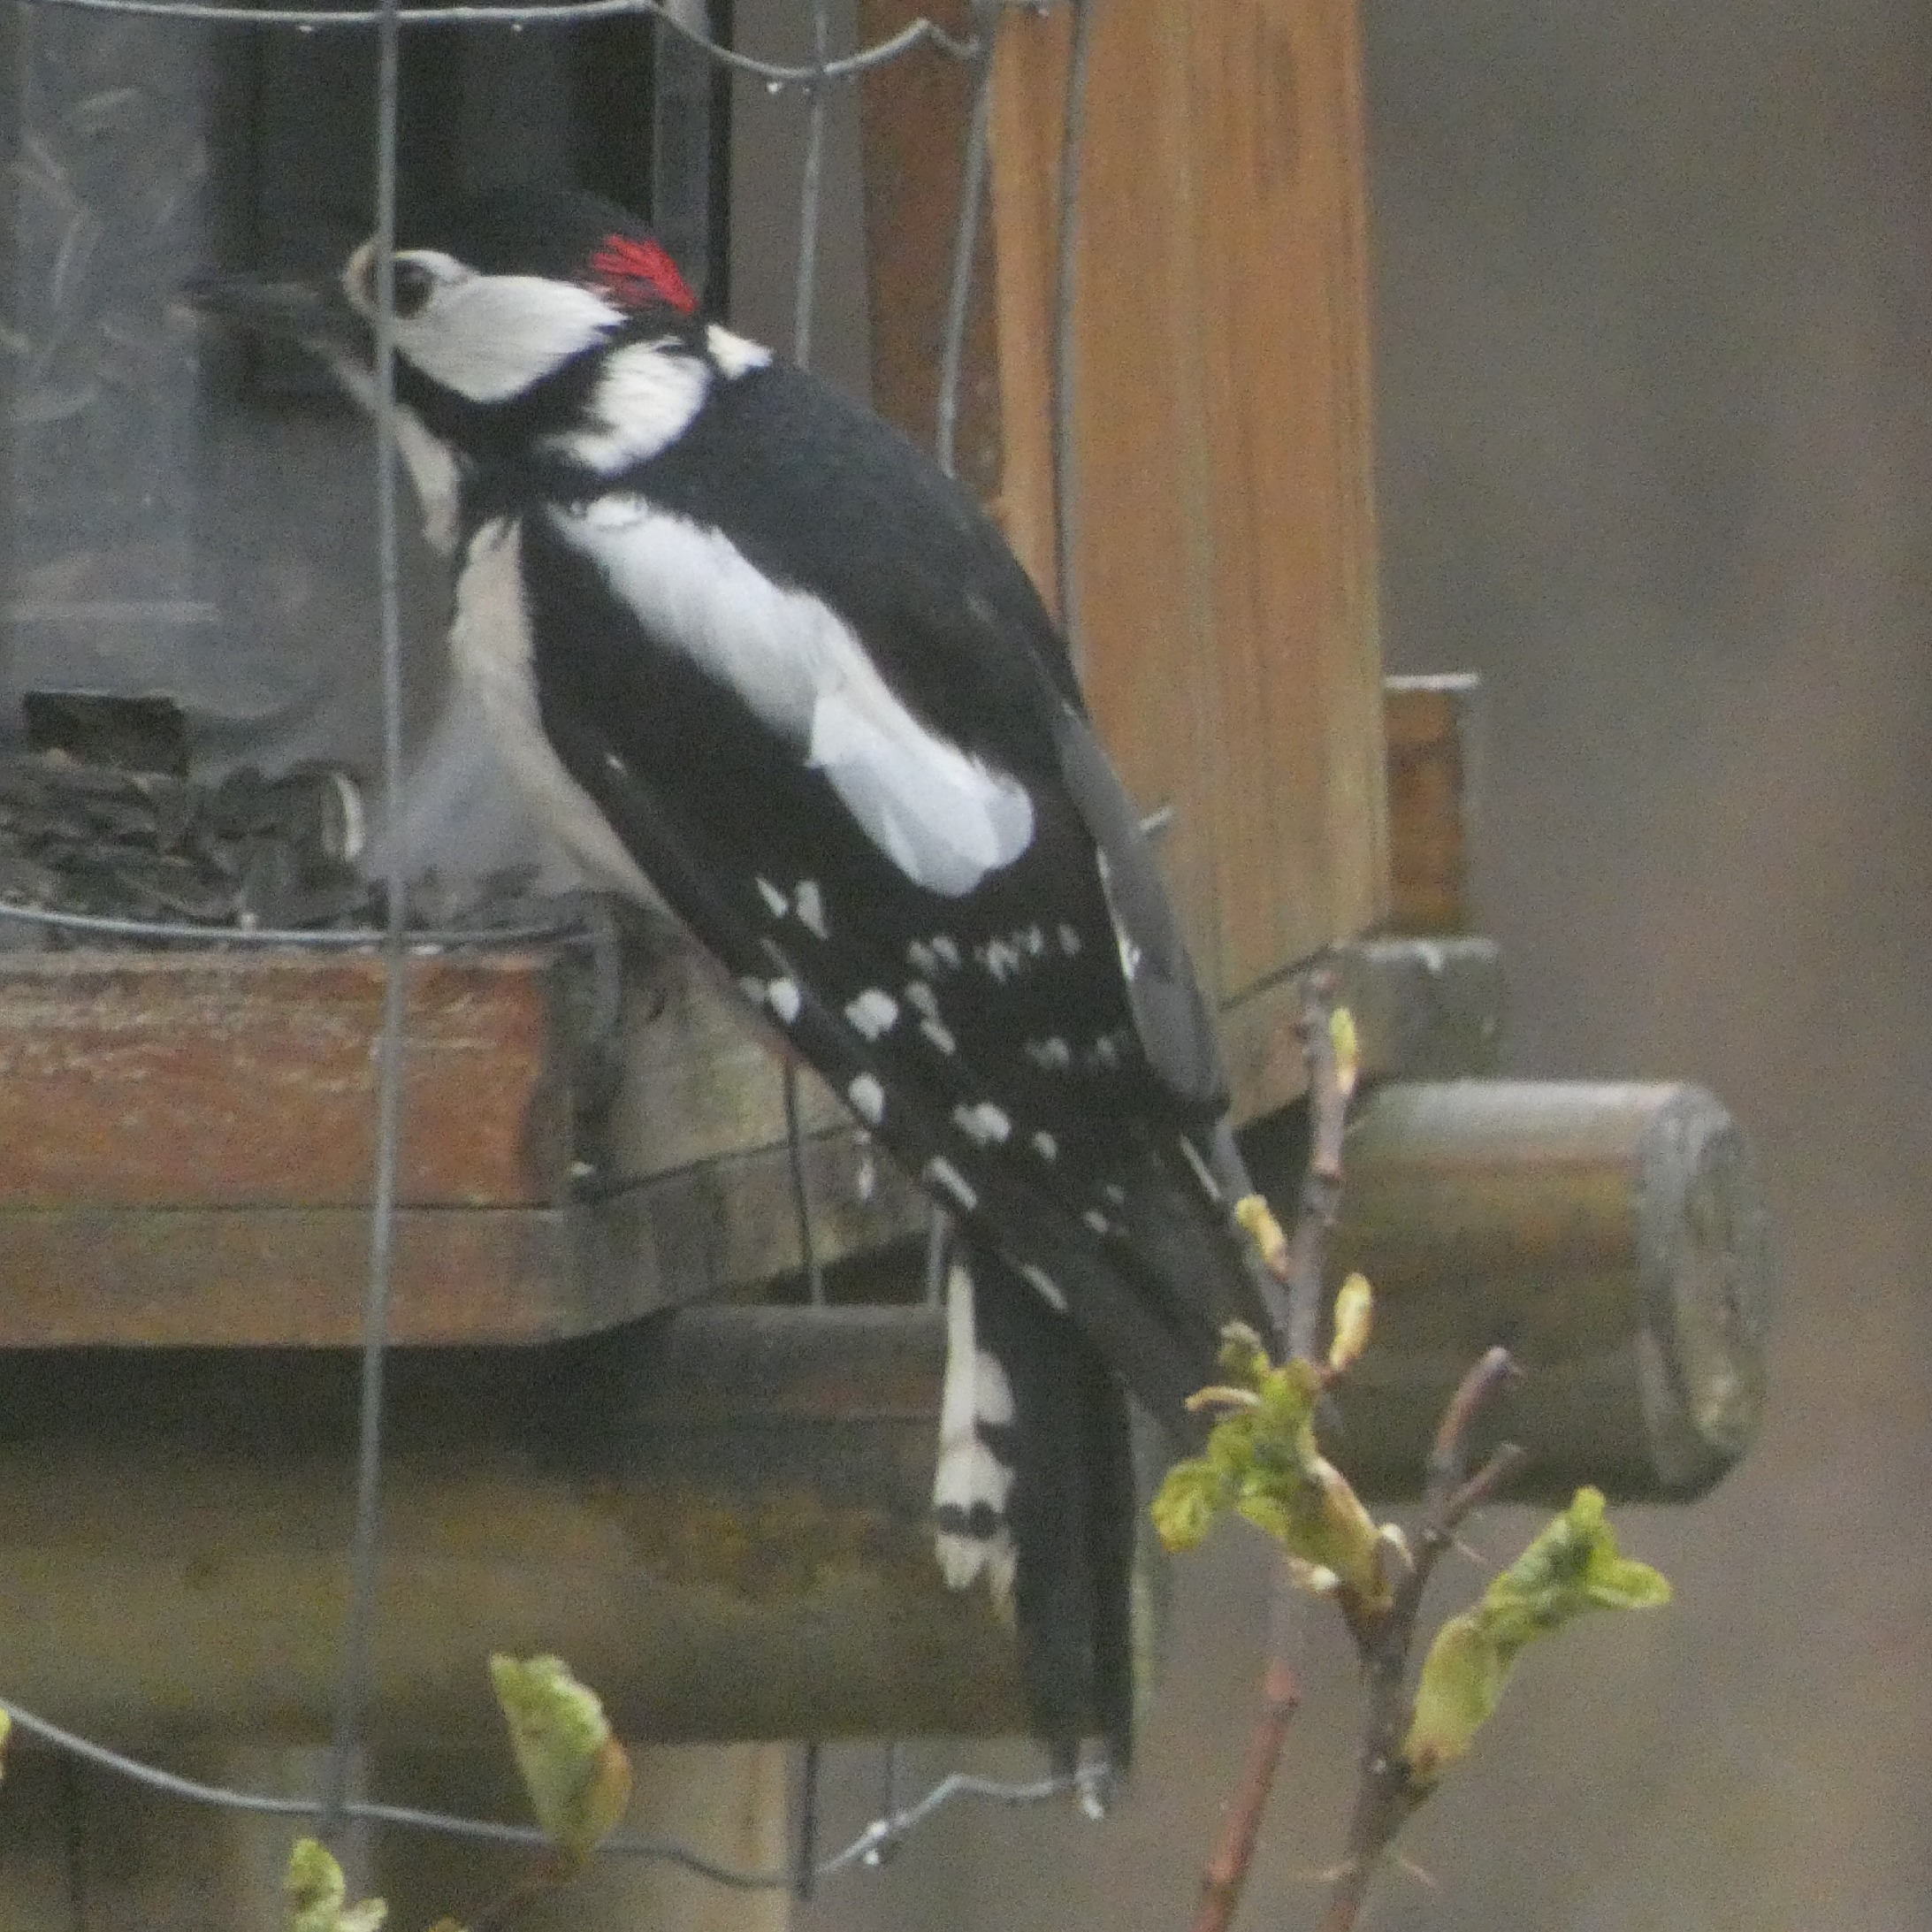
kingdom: Animalia
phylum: Chordata
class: Aves
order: Piciformes
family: Picidae
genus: Dendrocopos
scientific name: Dendrocopos major
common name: Stor flagspætte
